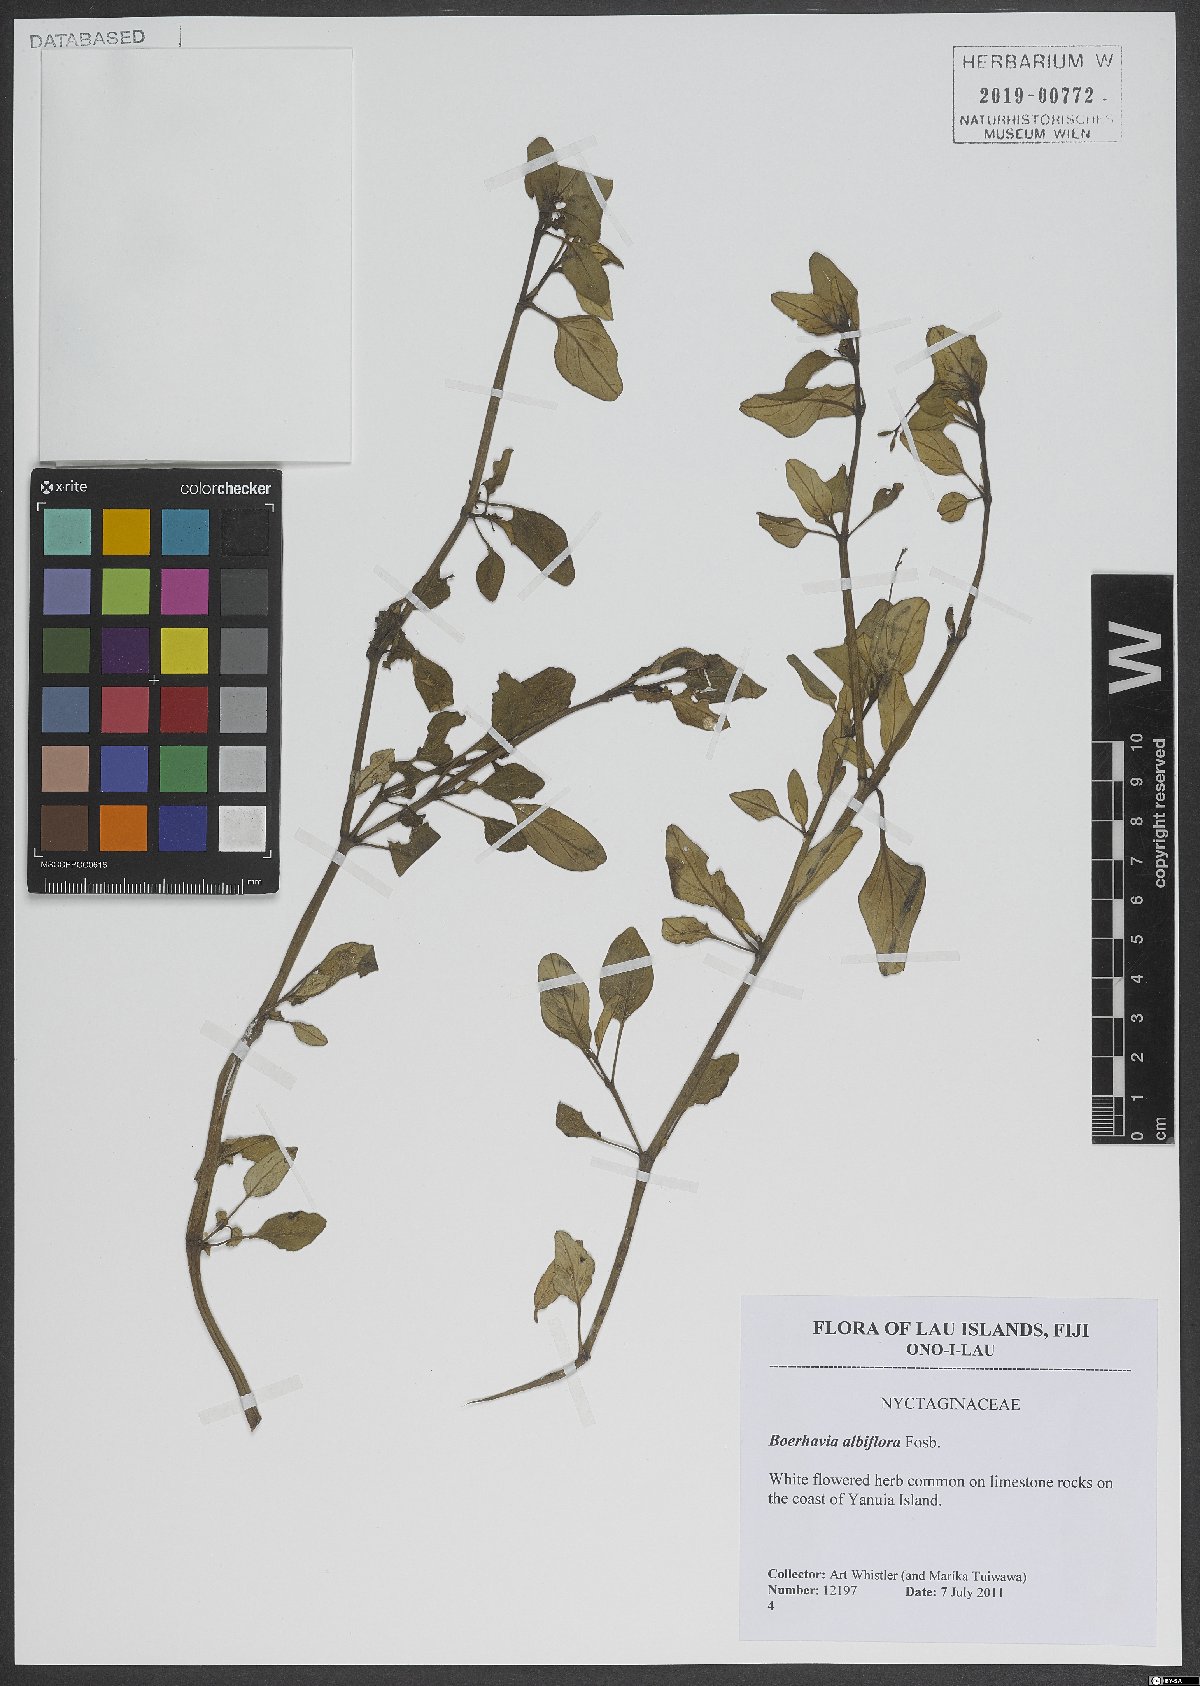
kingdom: Plantae
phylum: Tracheophyta
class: Magnoliopsida
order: Caryophyllales
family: Nyctaginaceae
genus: Boerhavia
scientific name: Boerhavia albiflora
